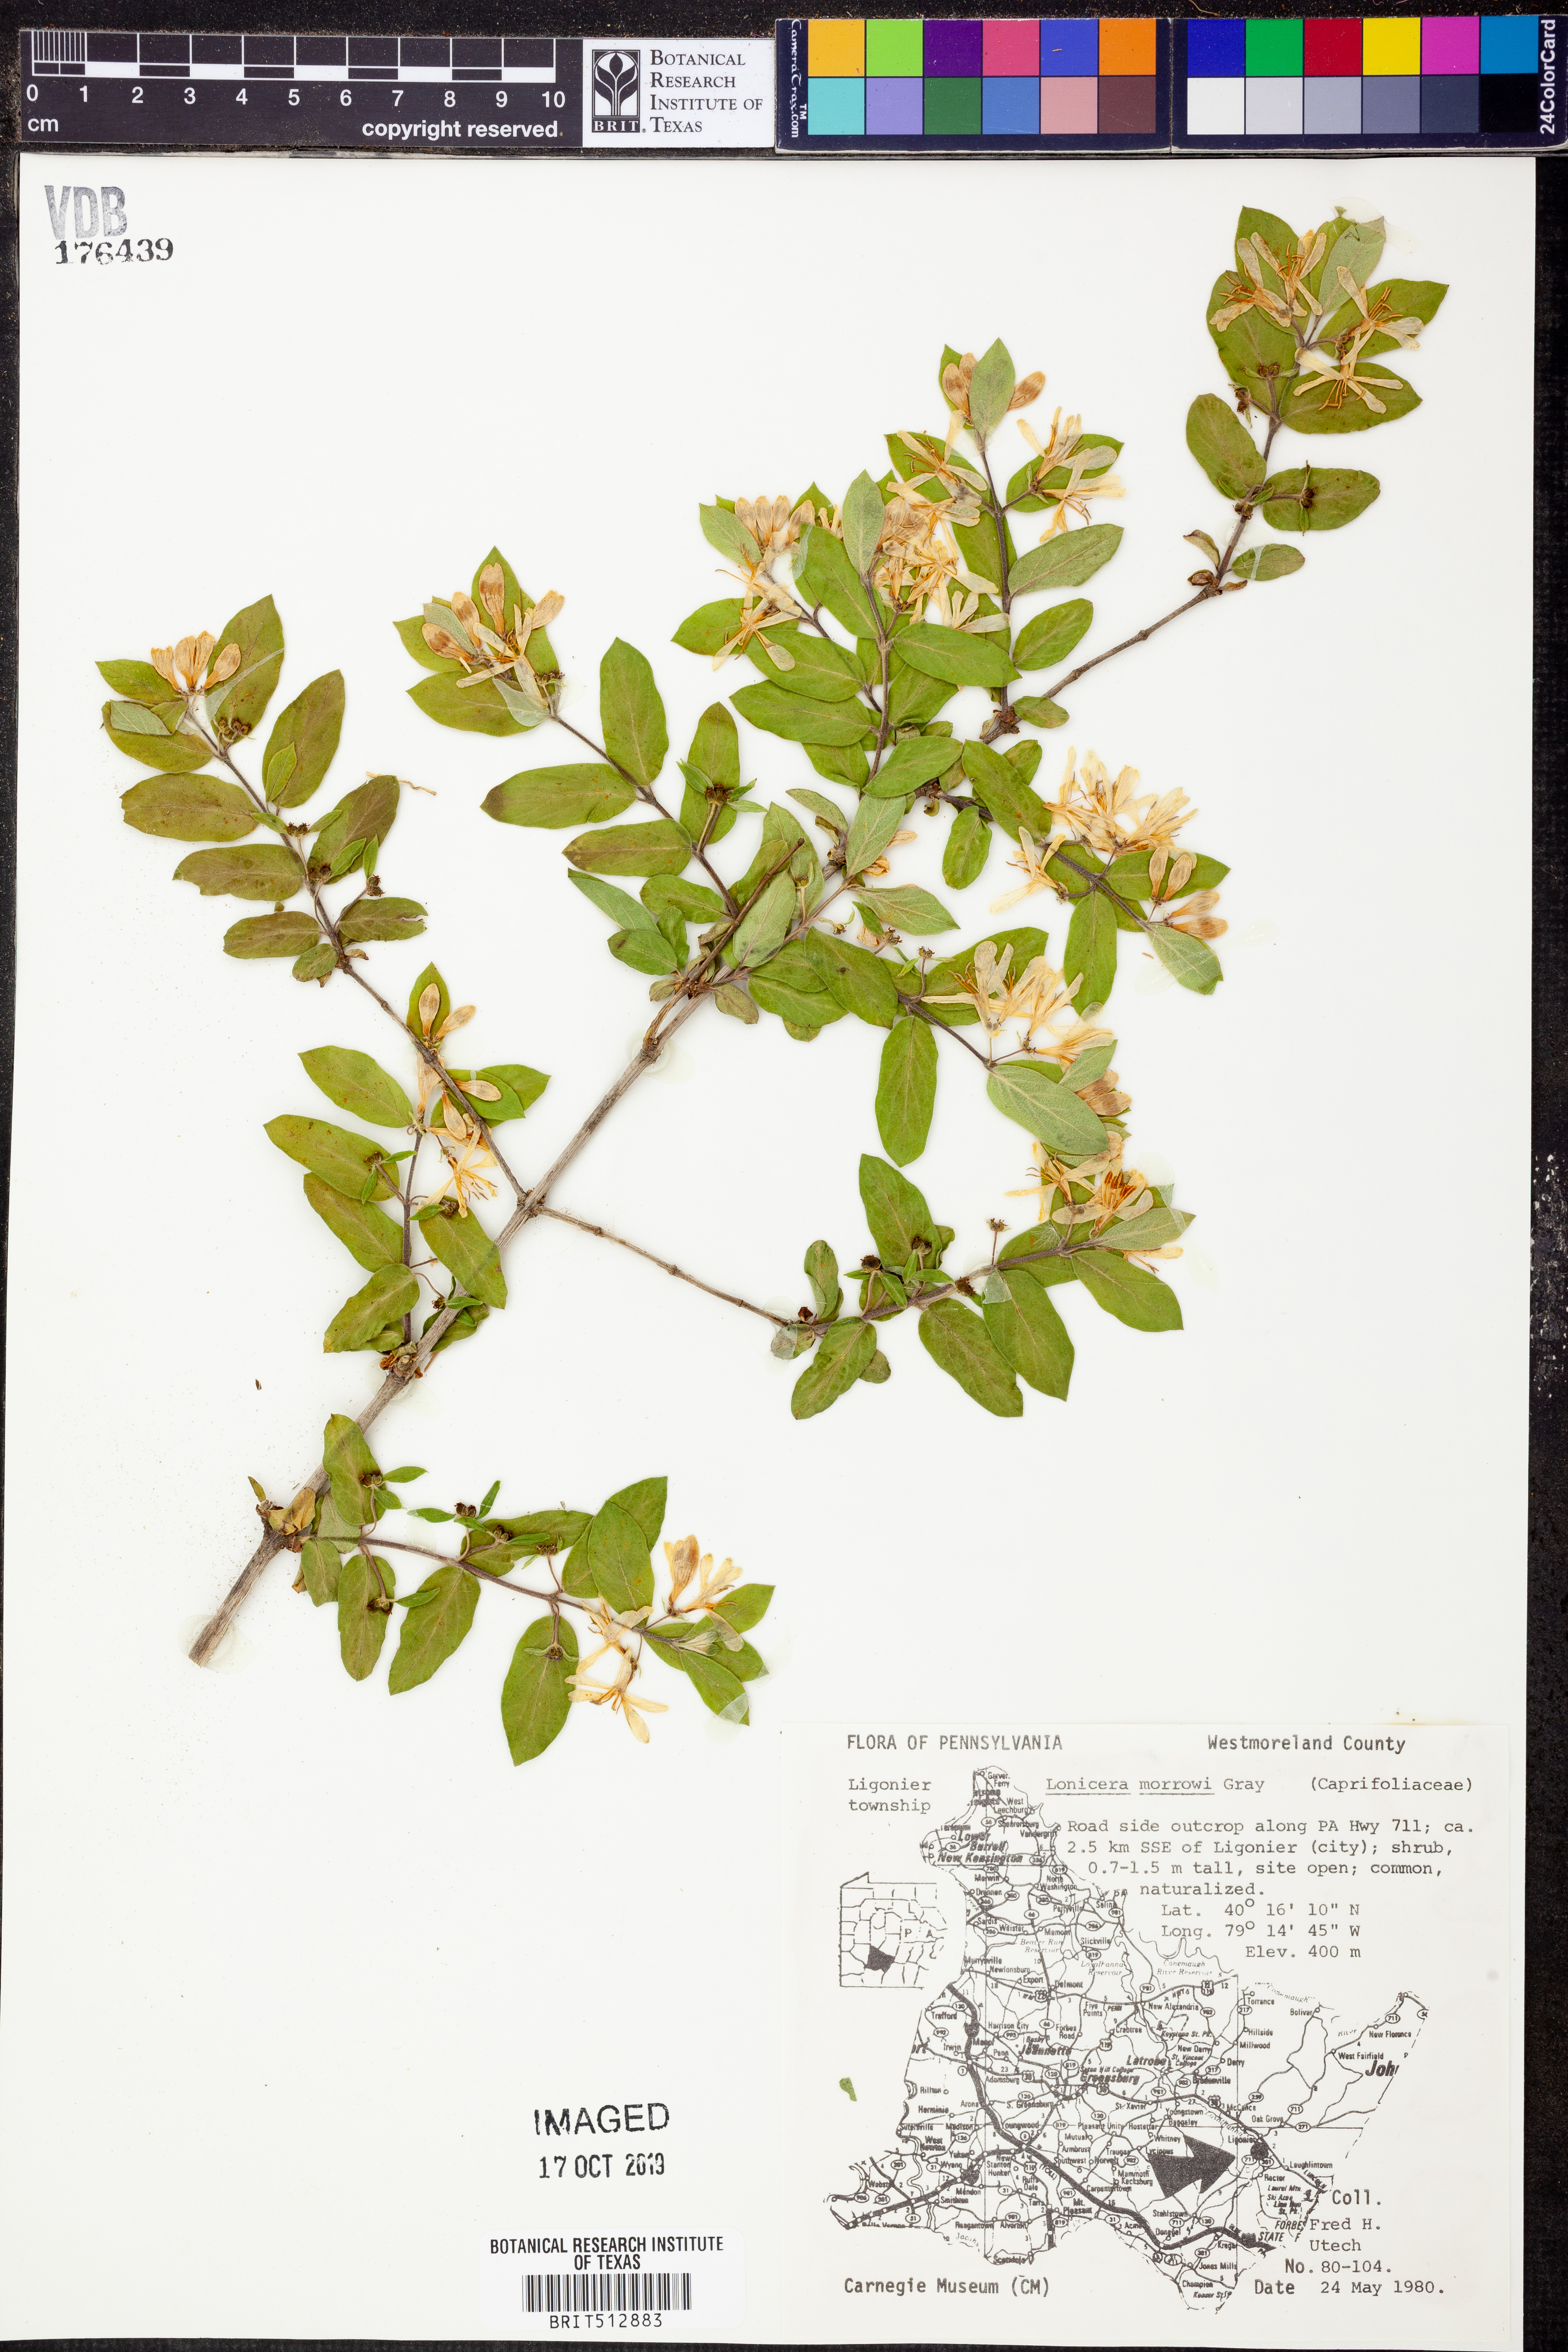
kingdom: Plantae
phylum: Tracheophyta
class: Magnoliopsida
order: Dipsacales
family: Caprifoliaceae
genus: Lonicera
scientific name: Lonicera morrowii
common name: Morrow's honeysuckle
